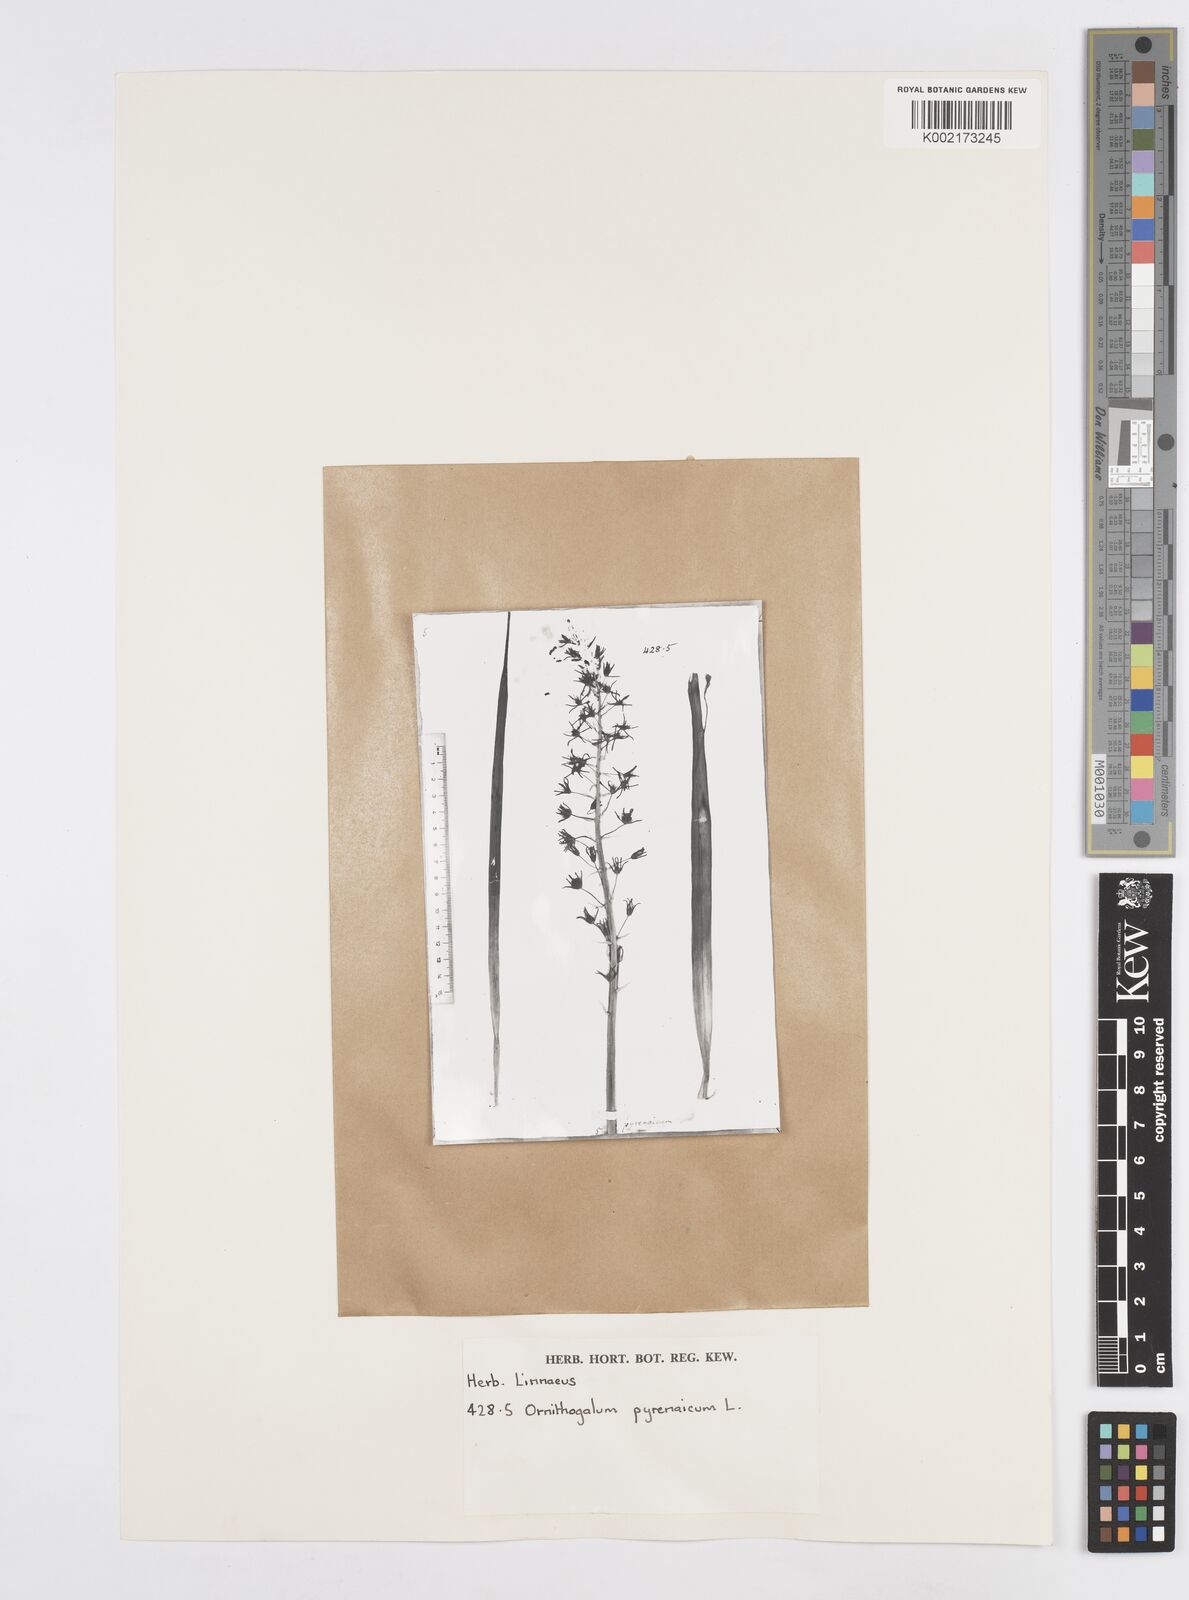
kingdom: Plantae
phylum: Tracheophyta
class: Liliopsida
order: Asparagales
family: Asparagaceae
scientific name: Asparagaceae
